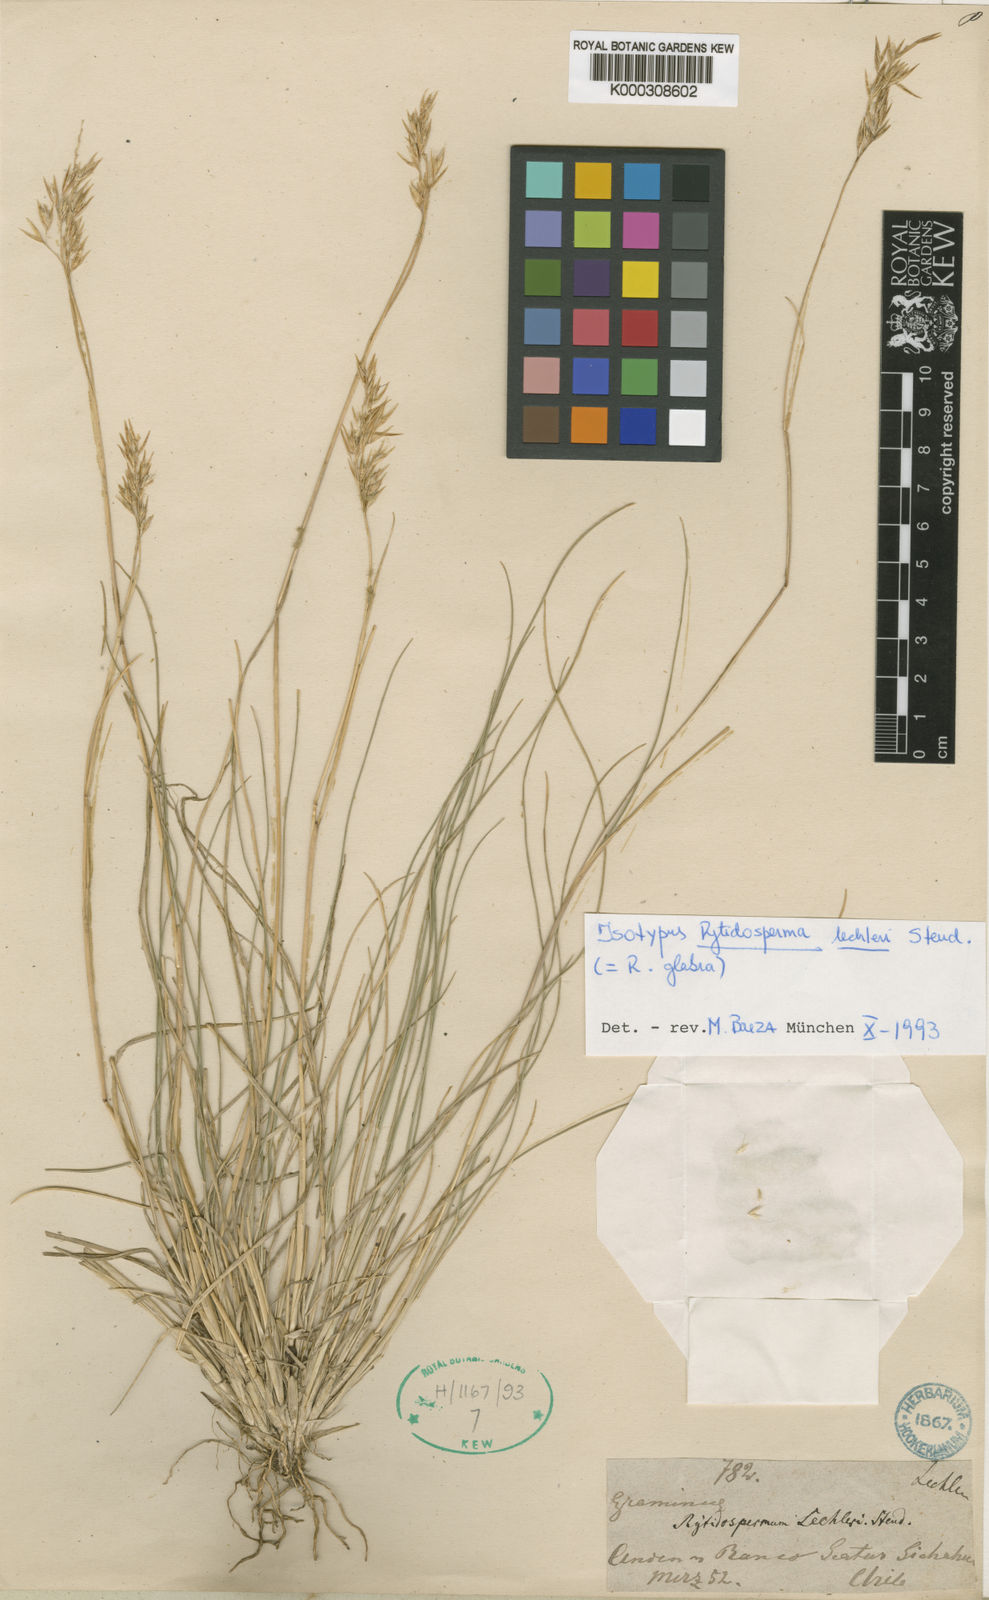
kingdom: Plantae
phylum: Tracheophyta
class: Liliopsida
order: Poales
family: Poaceae
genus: Rytidosperma
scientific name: Rytidosperma lechleri
